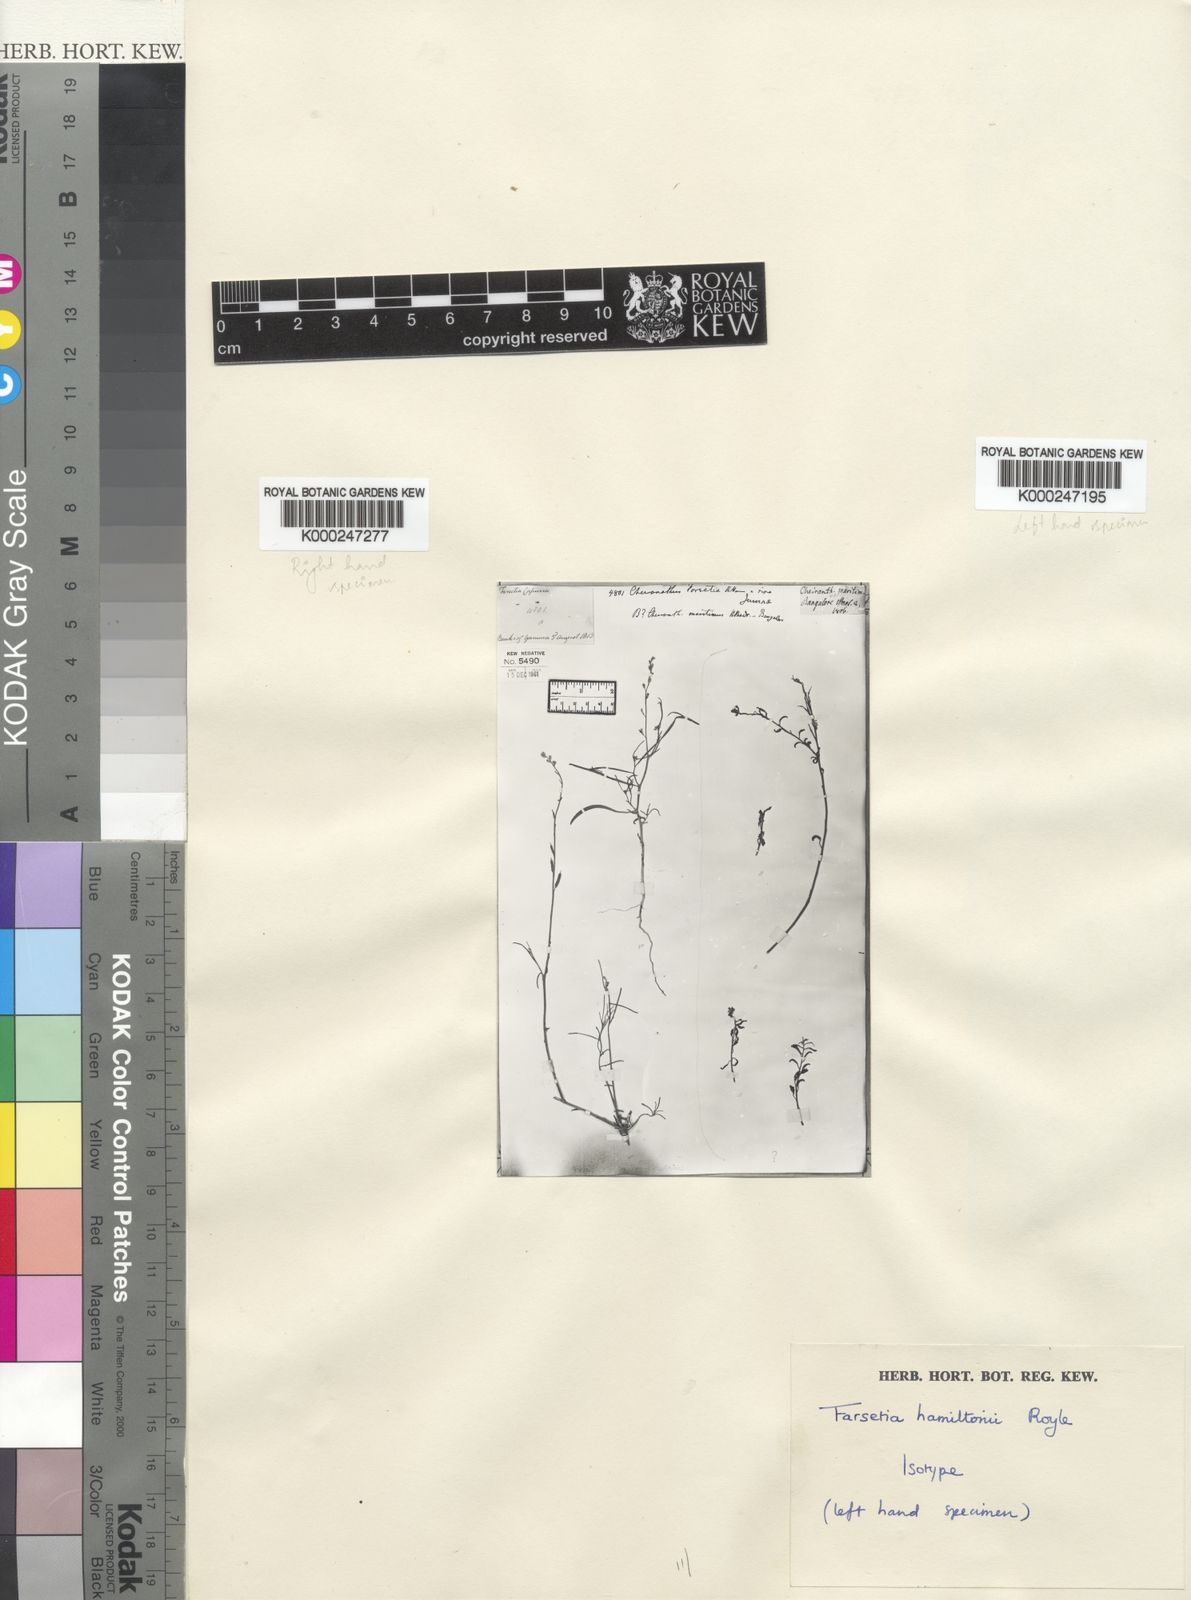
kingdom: Plantae
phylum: Tracheophyta
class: Magnoliopsida
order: Brassicales
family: Brassicaceae
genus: Farsetia
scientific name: Farsetia stylosa
